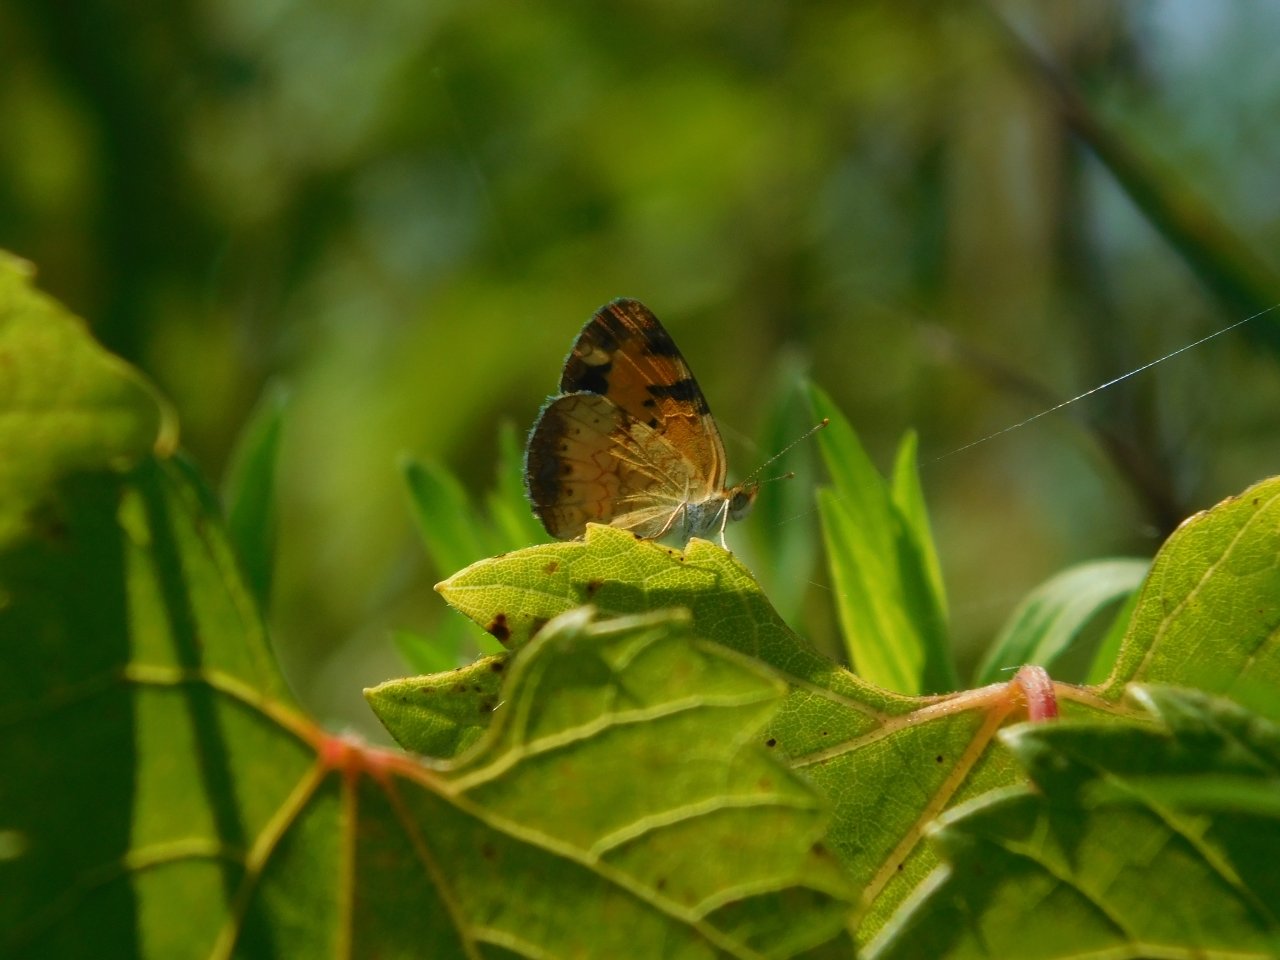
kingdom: Animalia
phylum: Arthropoda
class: Insecta
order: Lepidoptera
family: Nymphalidae
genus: Phyciodes
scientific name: Phyciodes tharos
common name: Northern Crescent
